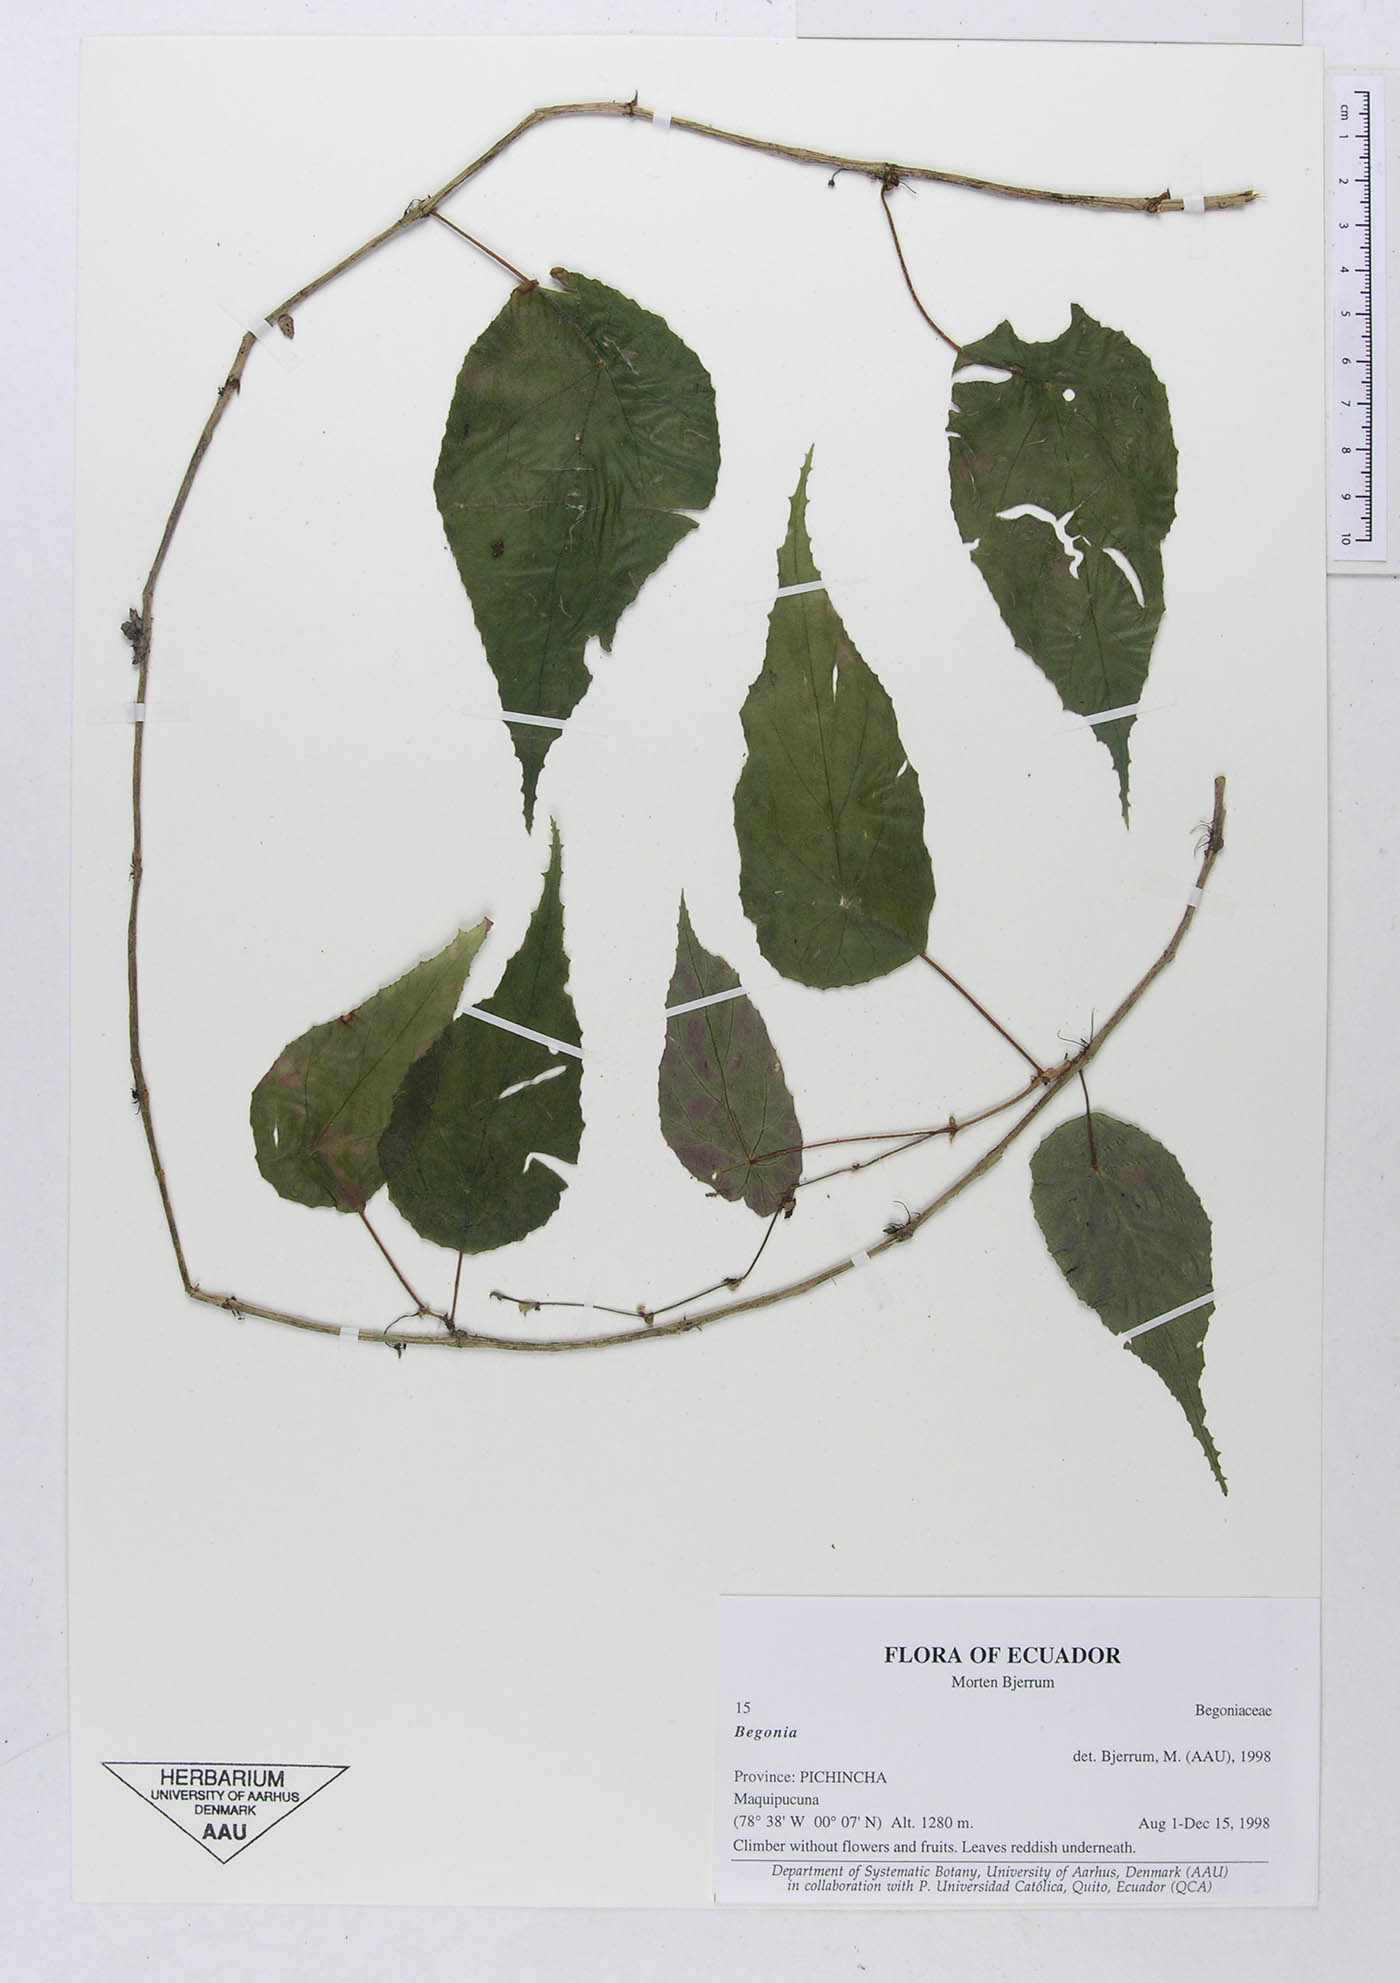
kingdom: Plantae
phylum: Tracheophyta
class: Magnoliopsida
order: Cucurbitales
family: Begoniaceae
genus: Begonia
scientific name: Begonia
